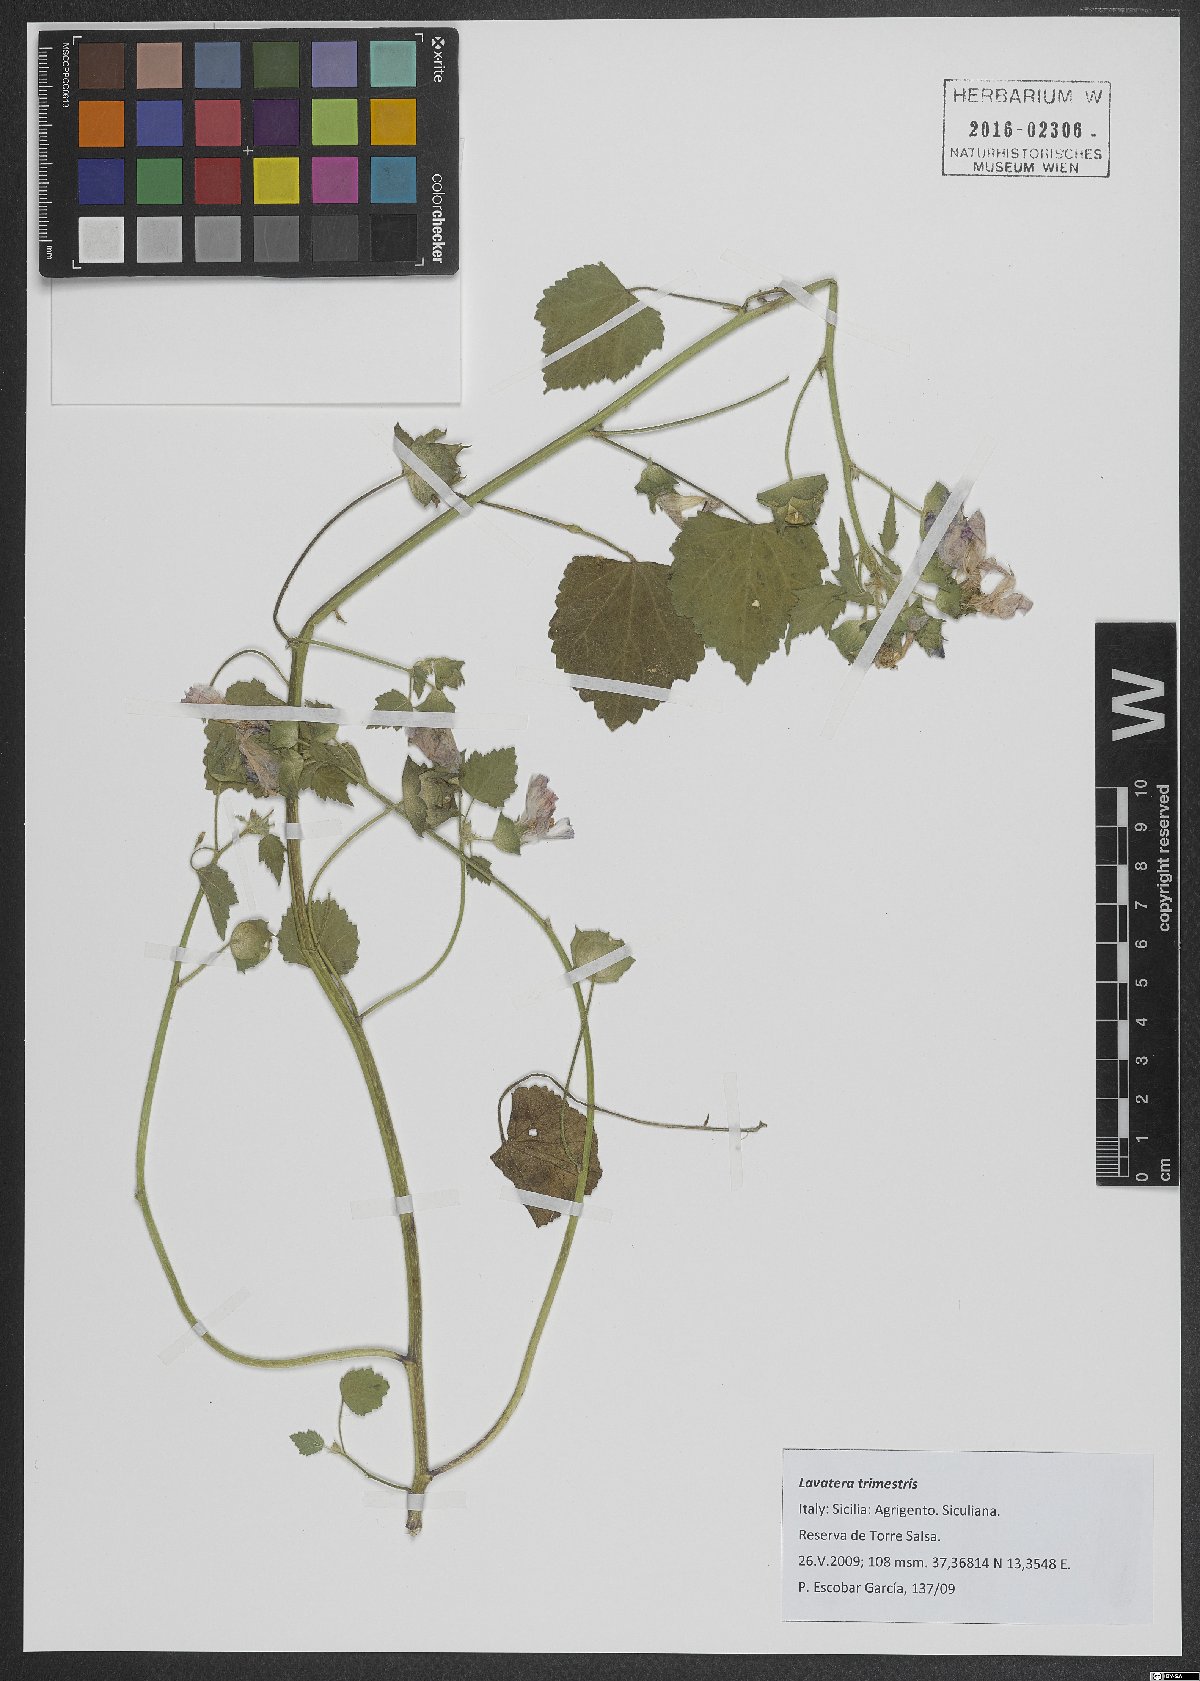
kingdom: Plantae
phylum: Tracheophyta
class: Magnoliopsida
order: Malvales
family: Malvaceae
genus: Malva
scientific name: Malva trimestris
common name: Royal mallow
